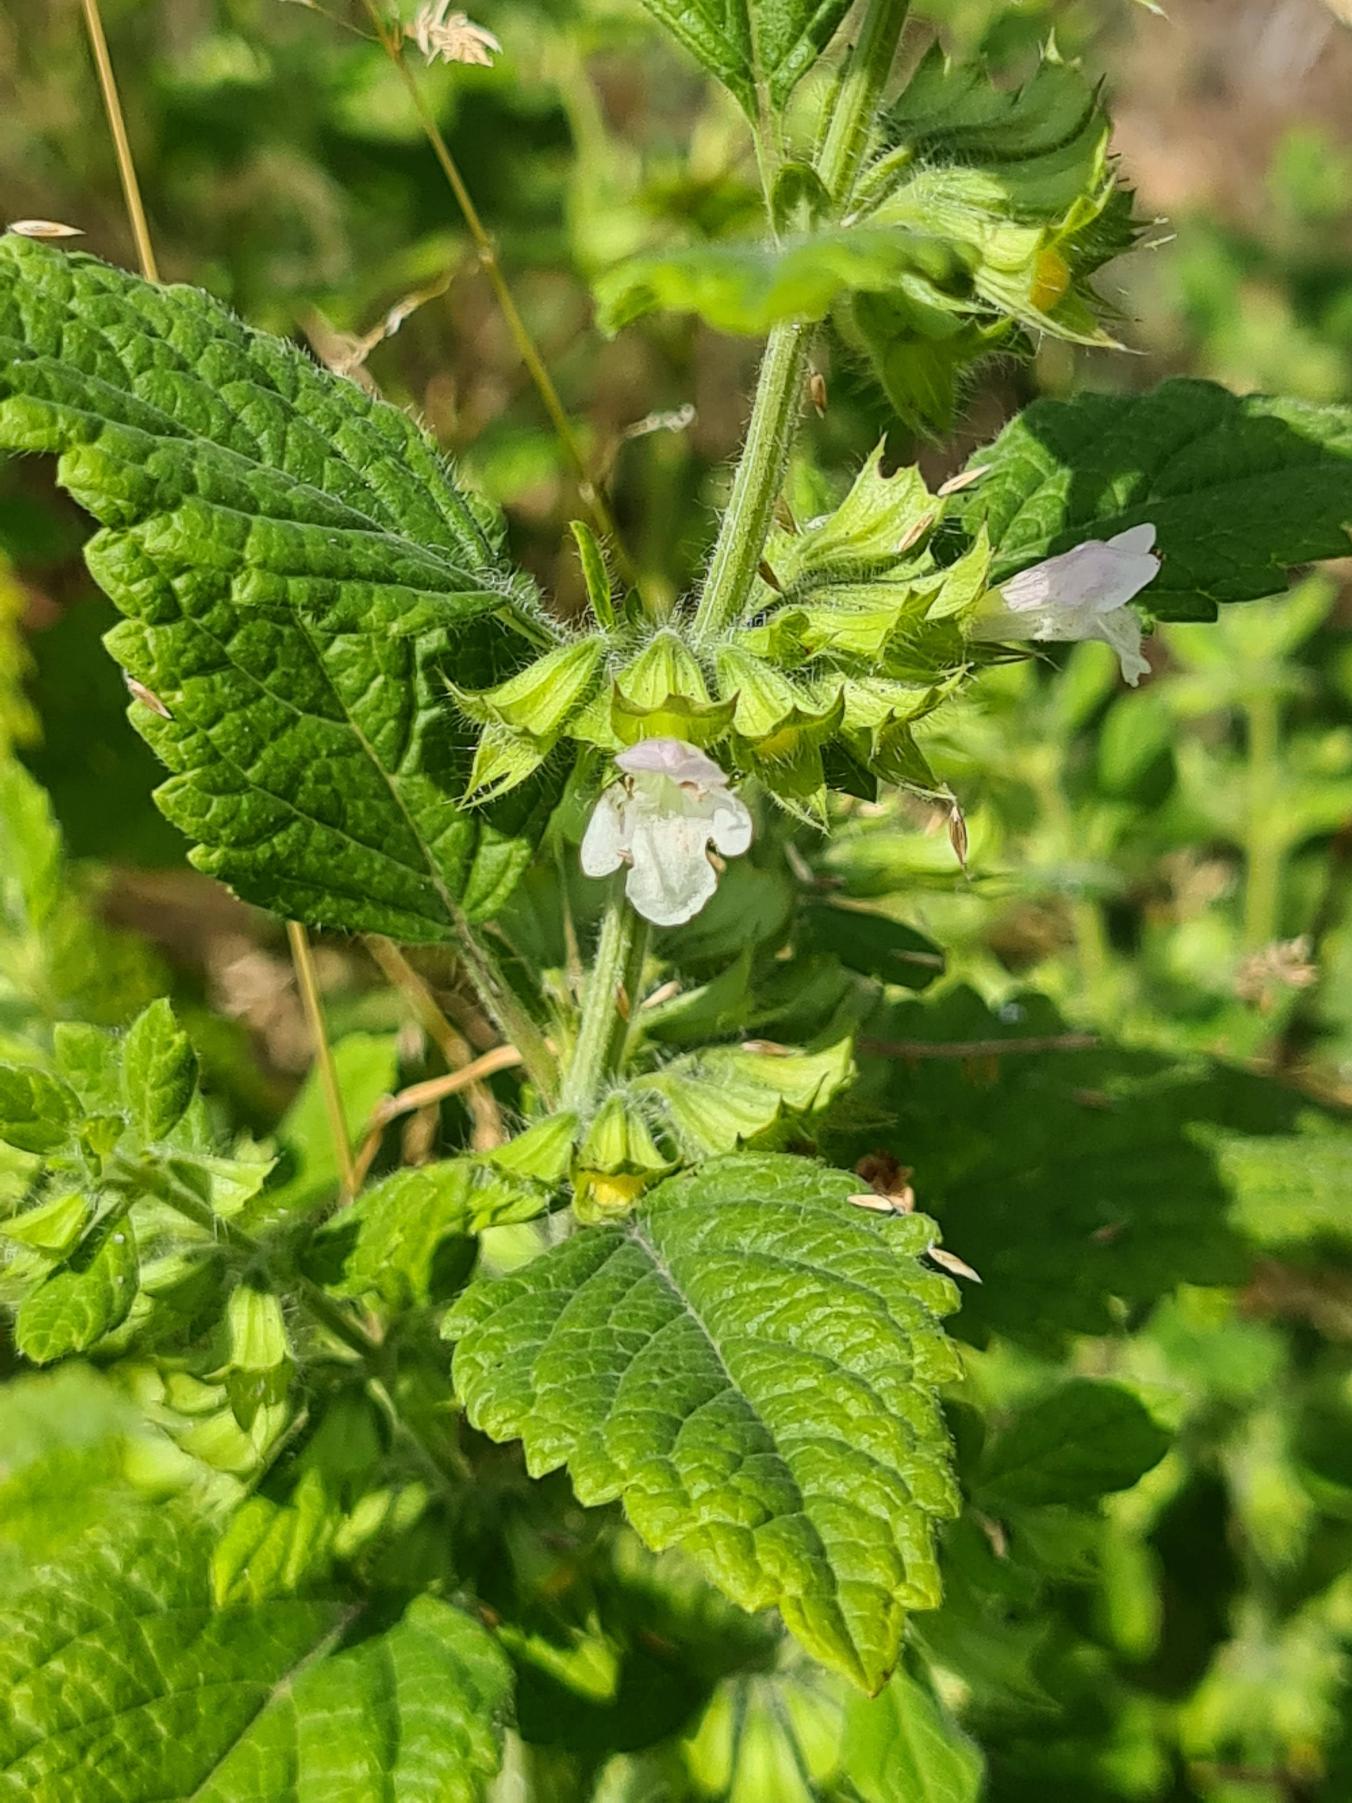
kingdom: Plantae
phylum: Tracheophyta
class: Magnoliopsida
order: Lamiales
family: Lamiaceae
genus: Melissa
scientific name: Melissa officinalis
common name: Citronmelisse
